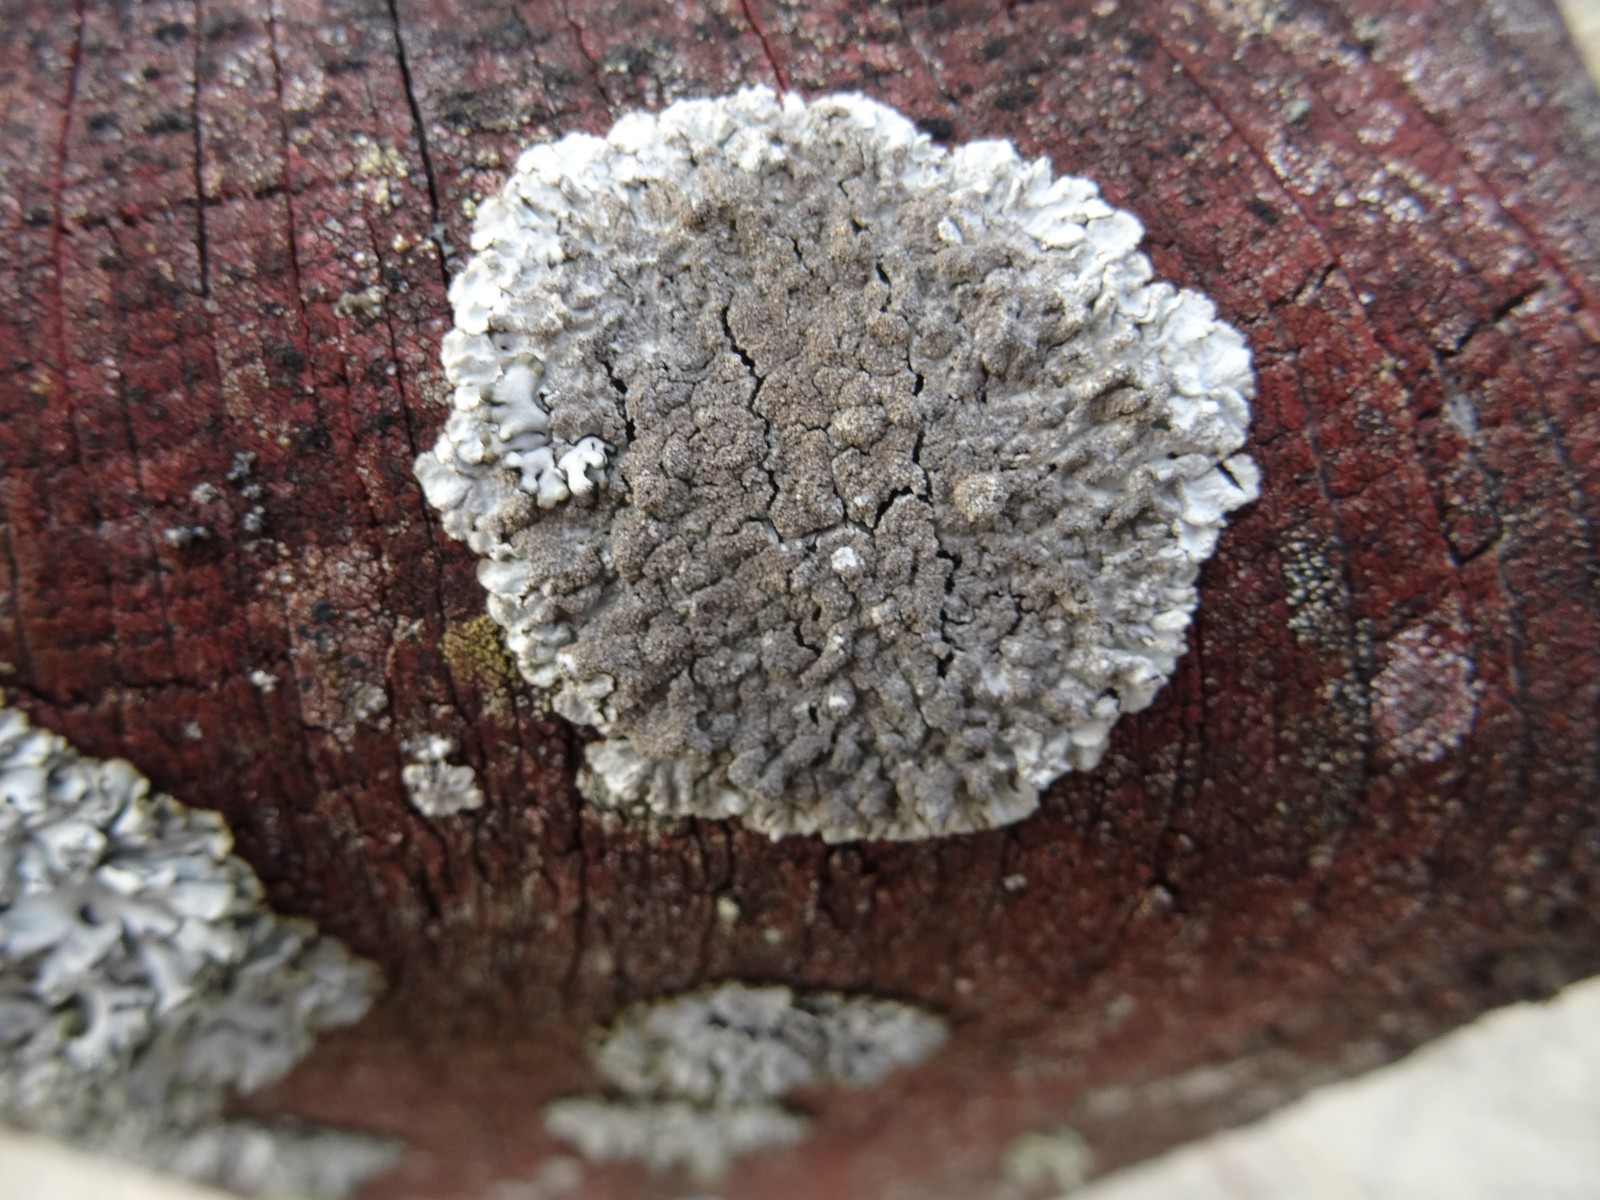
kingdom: Fungi
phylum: Ascomycota
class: Lecanoromycetes
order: Lecanorales
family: Parmeliaceae
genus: Imshaugia
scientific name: Imshaugia aleurites
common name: kliddet stolpelav
